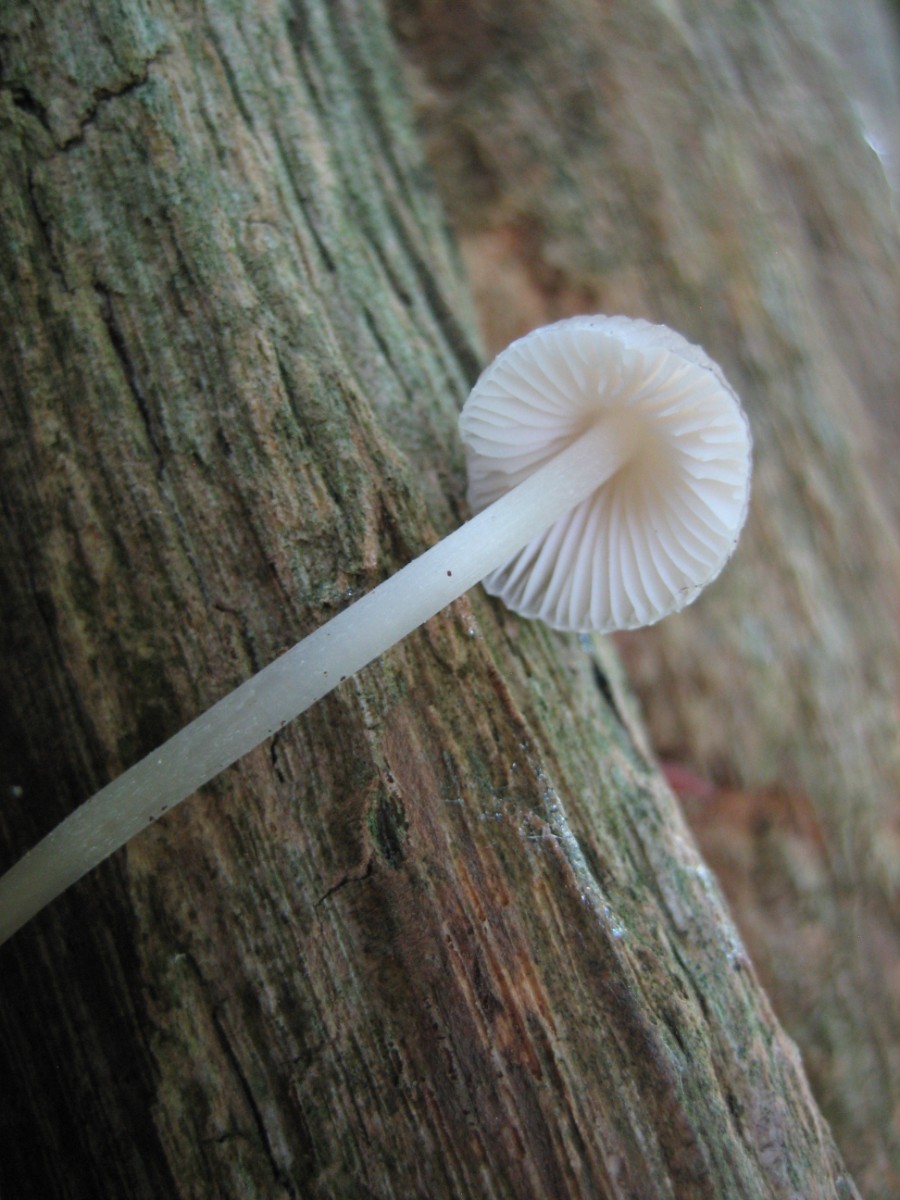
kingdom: Fungi
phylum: Basidiomycota
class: Agaricomycetes
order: Agaricales
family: Mycenaceae
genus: Mycena
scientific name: Mycena inclinata
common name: nikkende huesvamp
